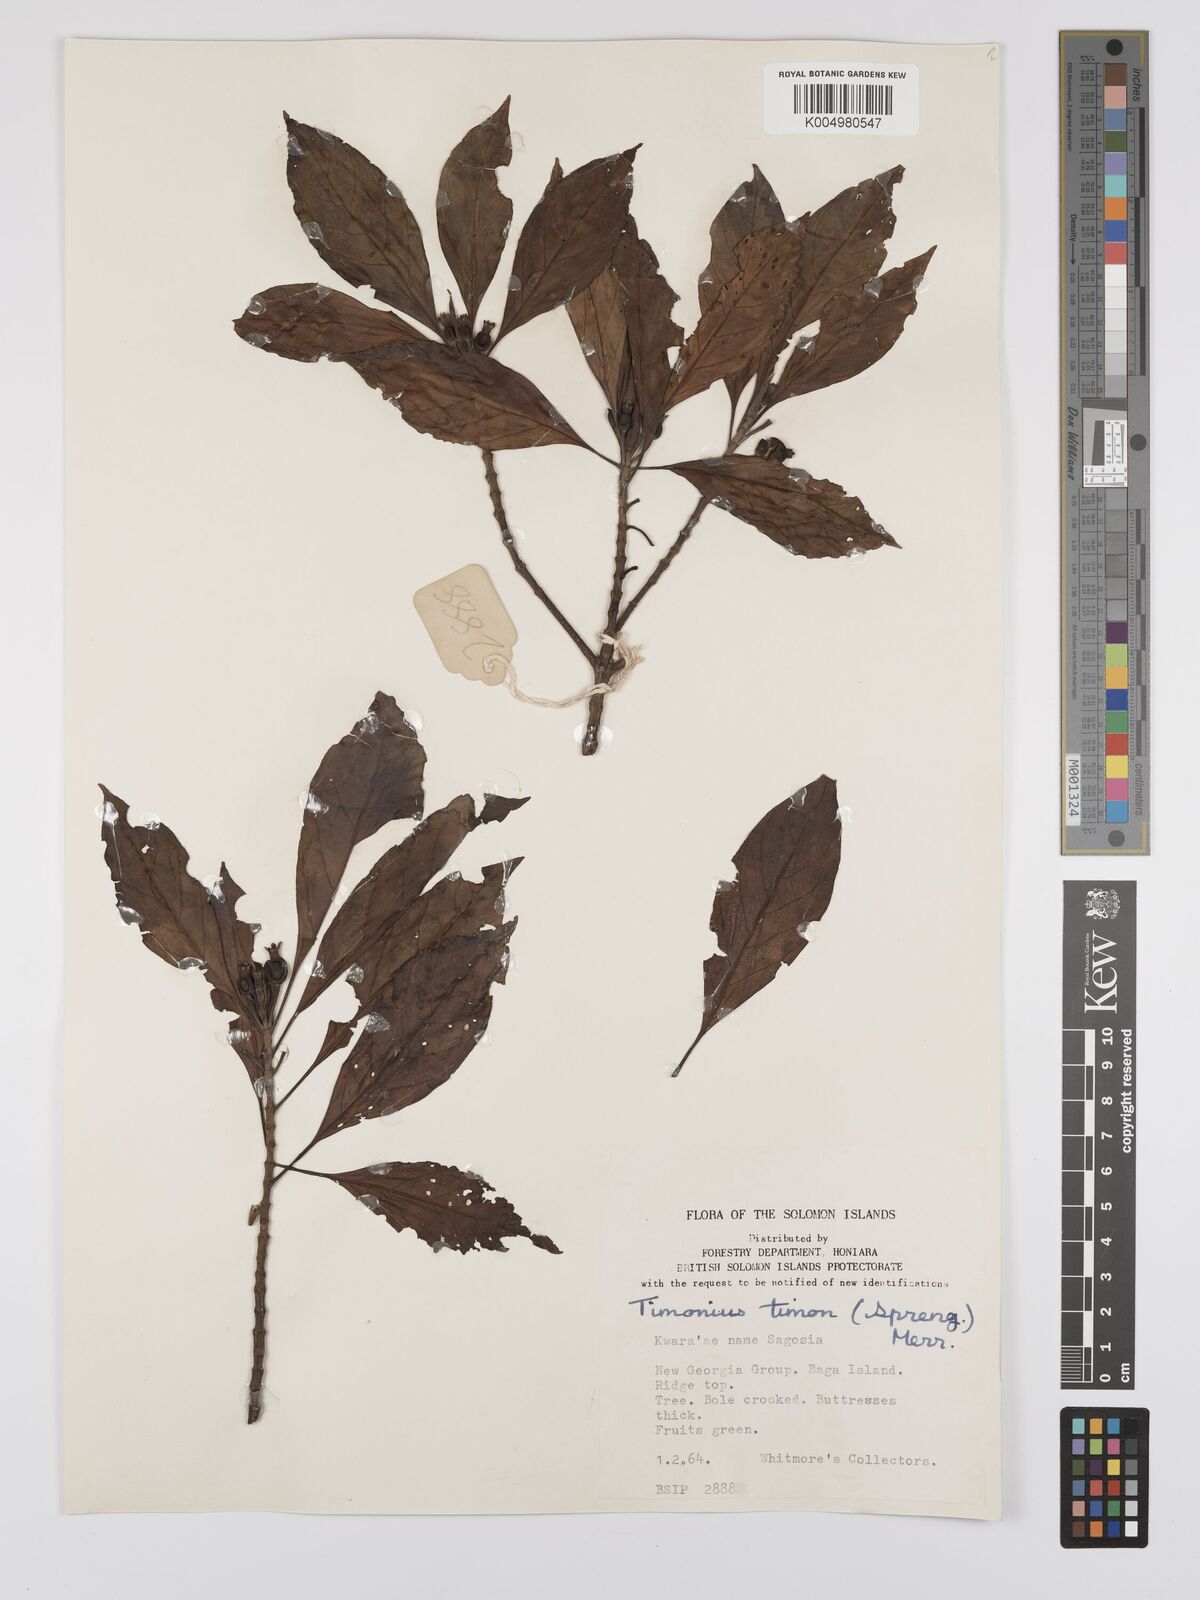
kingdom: Plantae
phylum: Tracheophyta
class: Magnoliopsida
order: Gentianales
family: Rubiaceae
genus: Timonius
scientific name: Timonius timon
